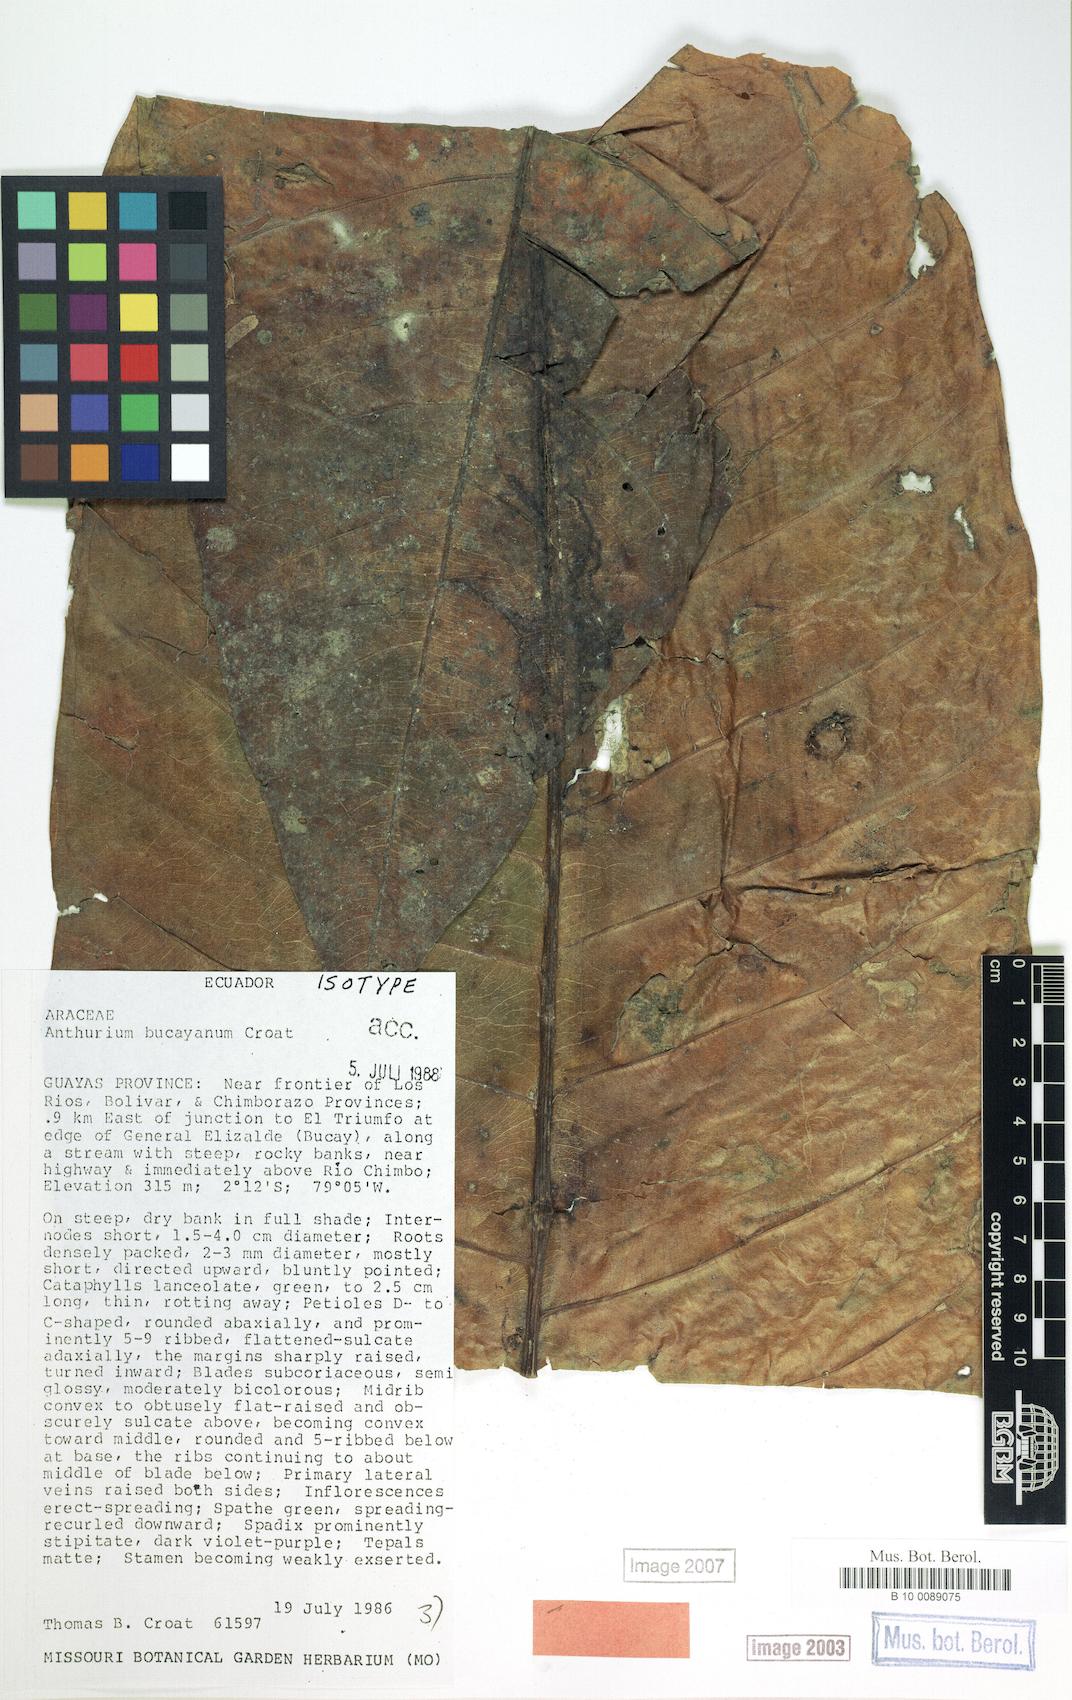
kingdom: Plantae
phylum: Tracheophyta
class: Liliopsida
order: Alismatales
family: Araceae
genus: Anthurium
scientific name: Anthurium bucayanum
